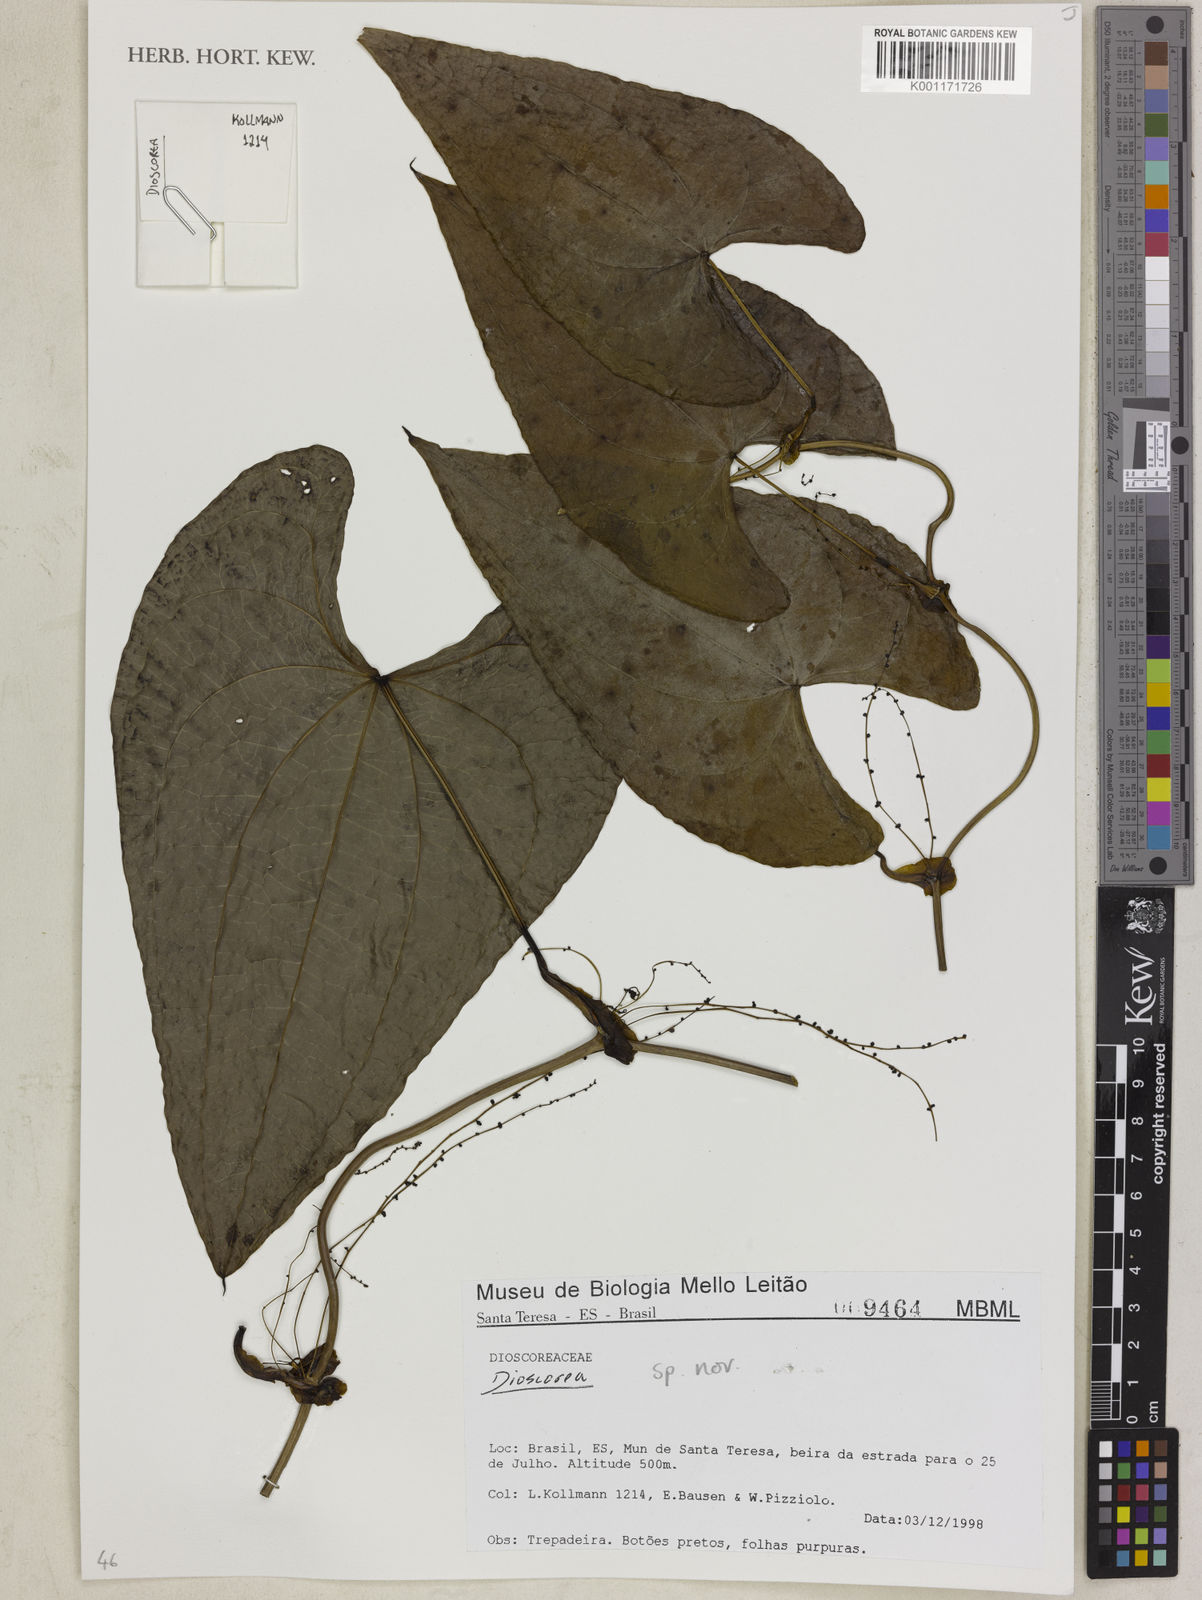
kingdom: Plantae
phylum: Tracheophyta
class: Liliopsida
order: Dioscoreales
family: Dioscoreaceae
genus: Dioscorea
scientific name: Dioscorea planistipulosa
